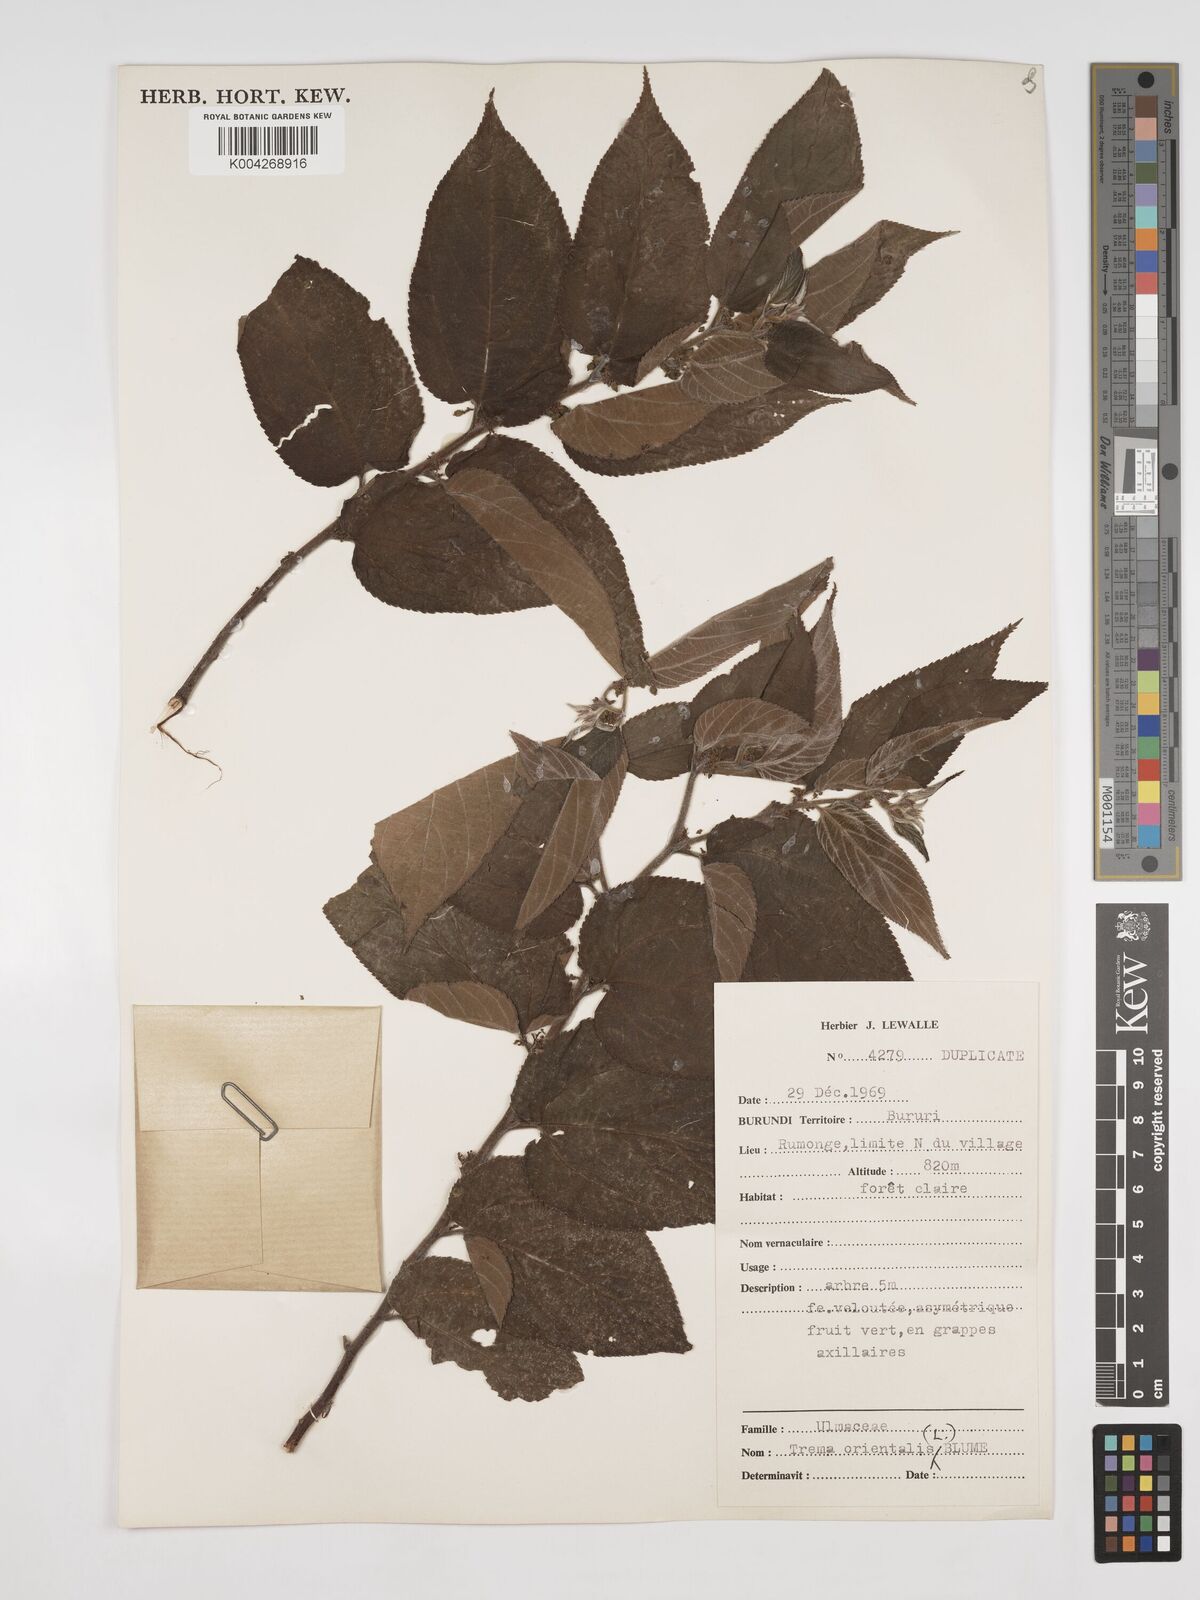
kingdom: Plantae
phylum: Tracheophyta
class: Magnoliopsida
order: Rosales
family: Cannabaceae
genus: Trema
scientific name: Trema orientale
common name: Indian charcoal tree
